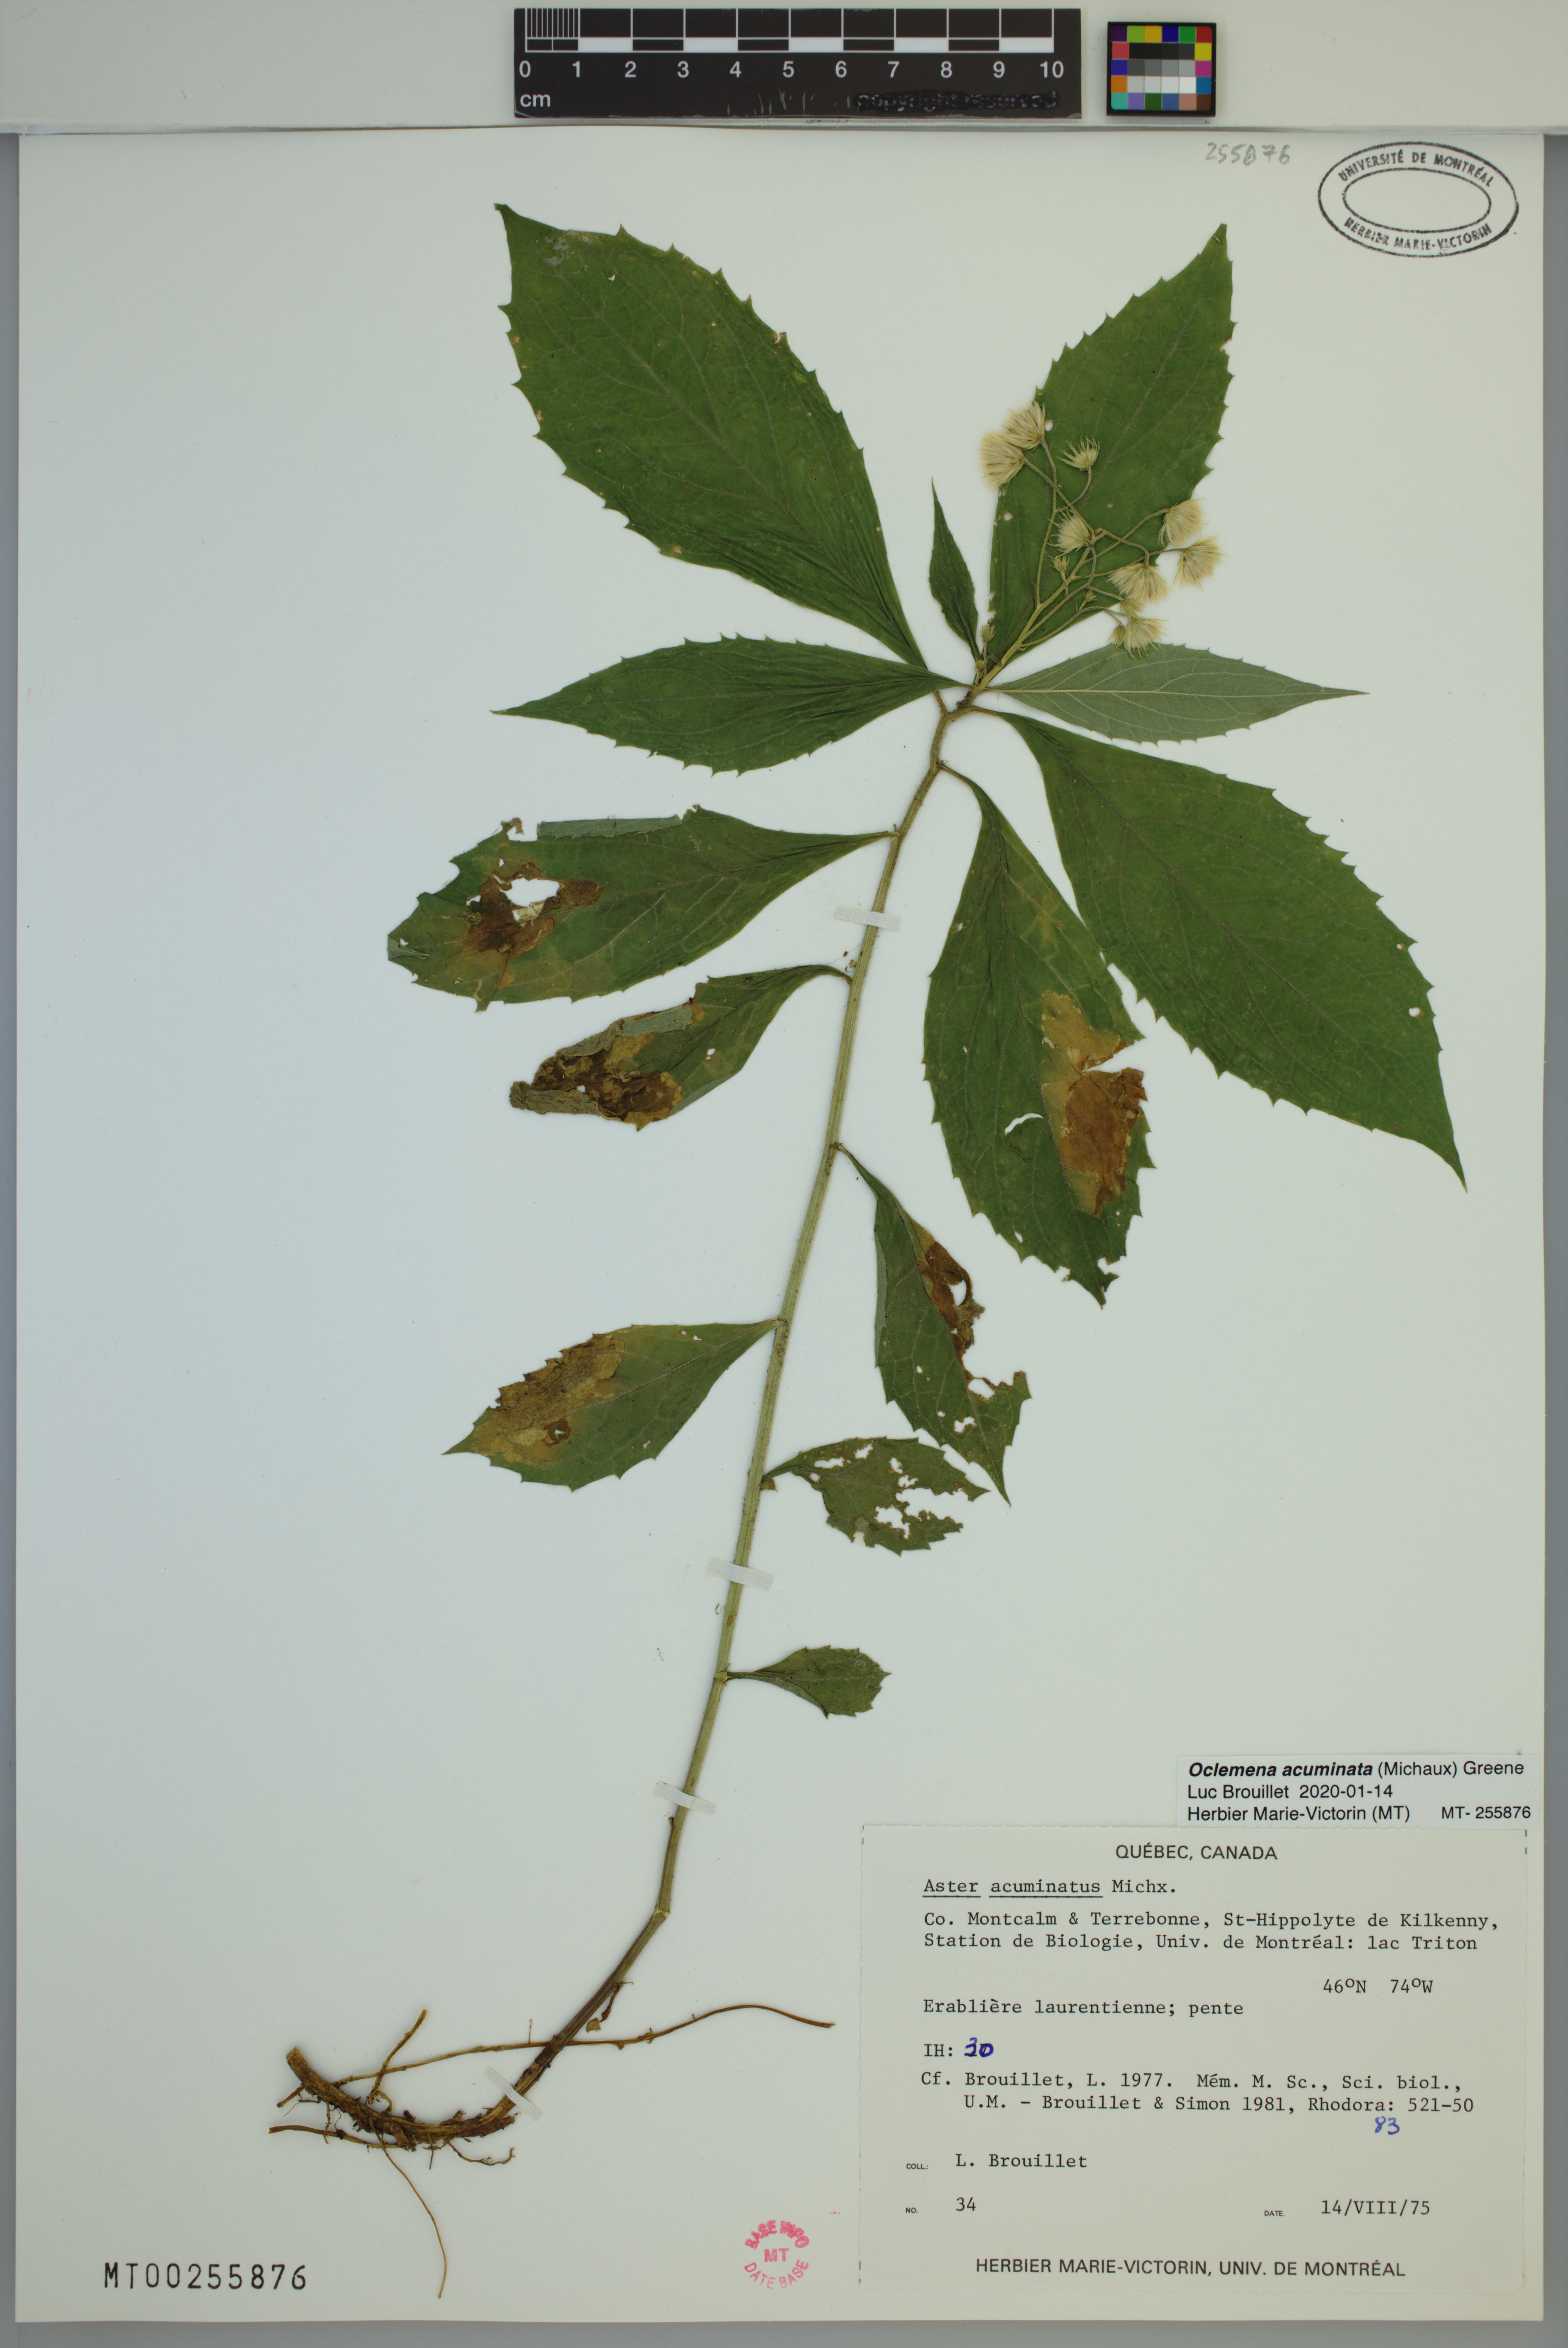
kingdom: Plantae
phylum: Tracheophyta
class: Magnoliopsida
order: Asterales
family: Asteraceae
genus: Oclemena
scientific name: Oclemena acuminata
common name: Mountain aster
